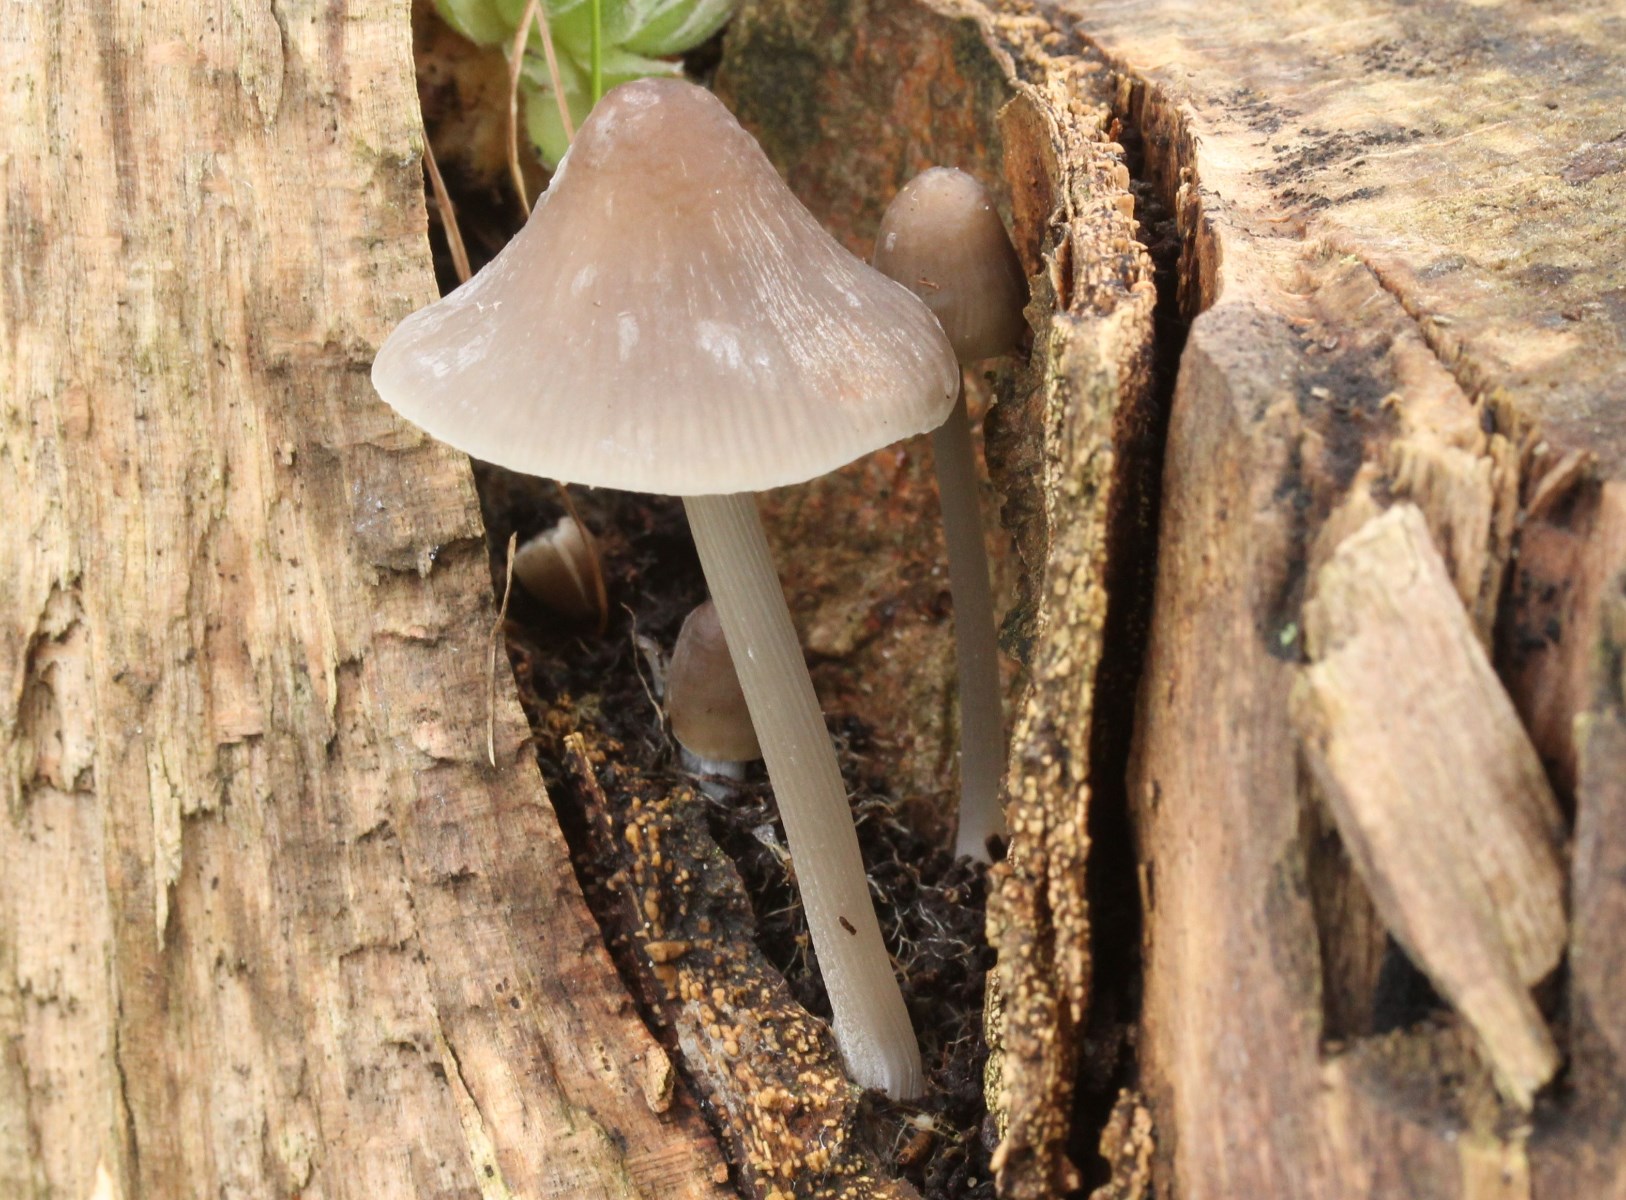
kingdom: Fungi
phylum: Basidiomycota
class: Agaricomycetes
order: Agaricales
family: Mycenaceae
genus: Mycena
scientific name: Mycena polygramma
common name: mangestribet huesvamp
